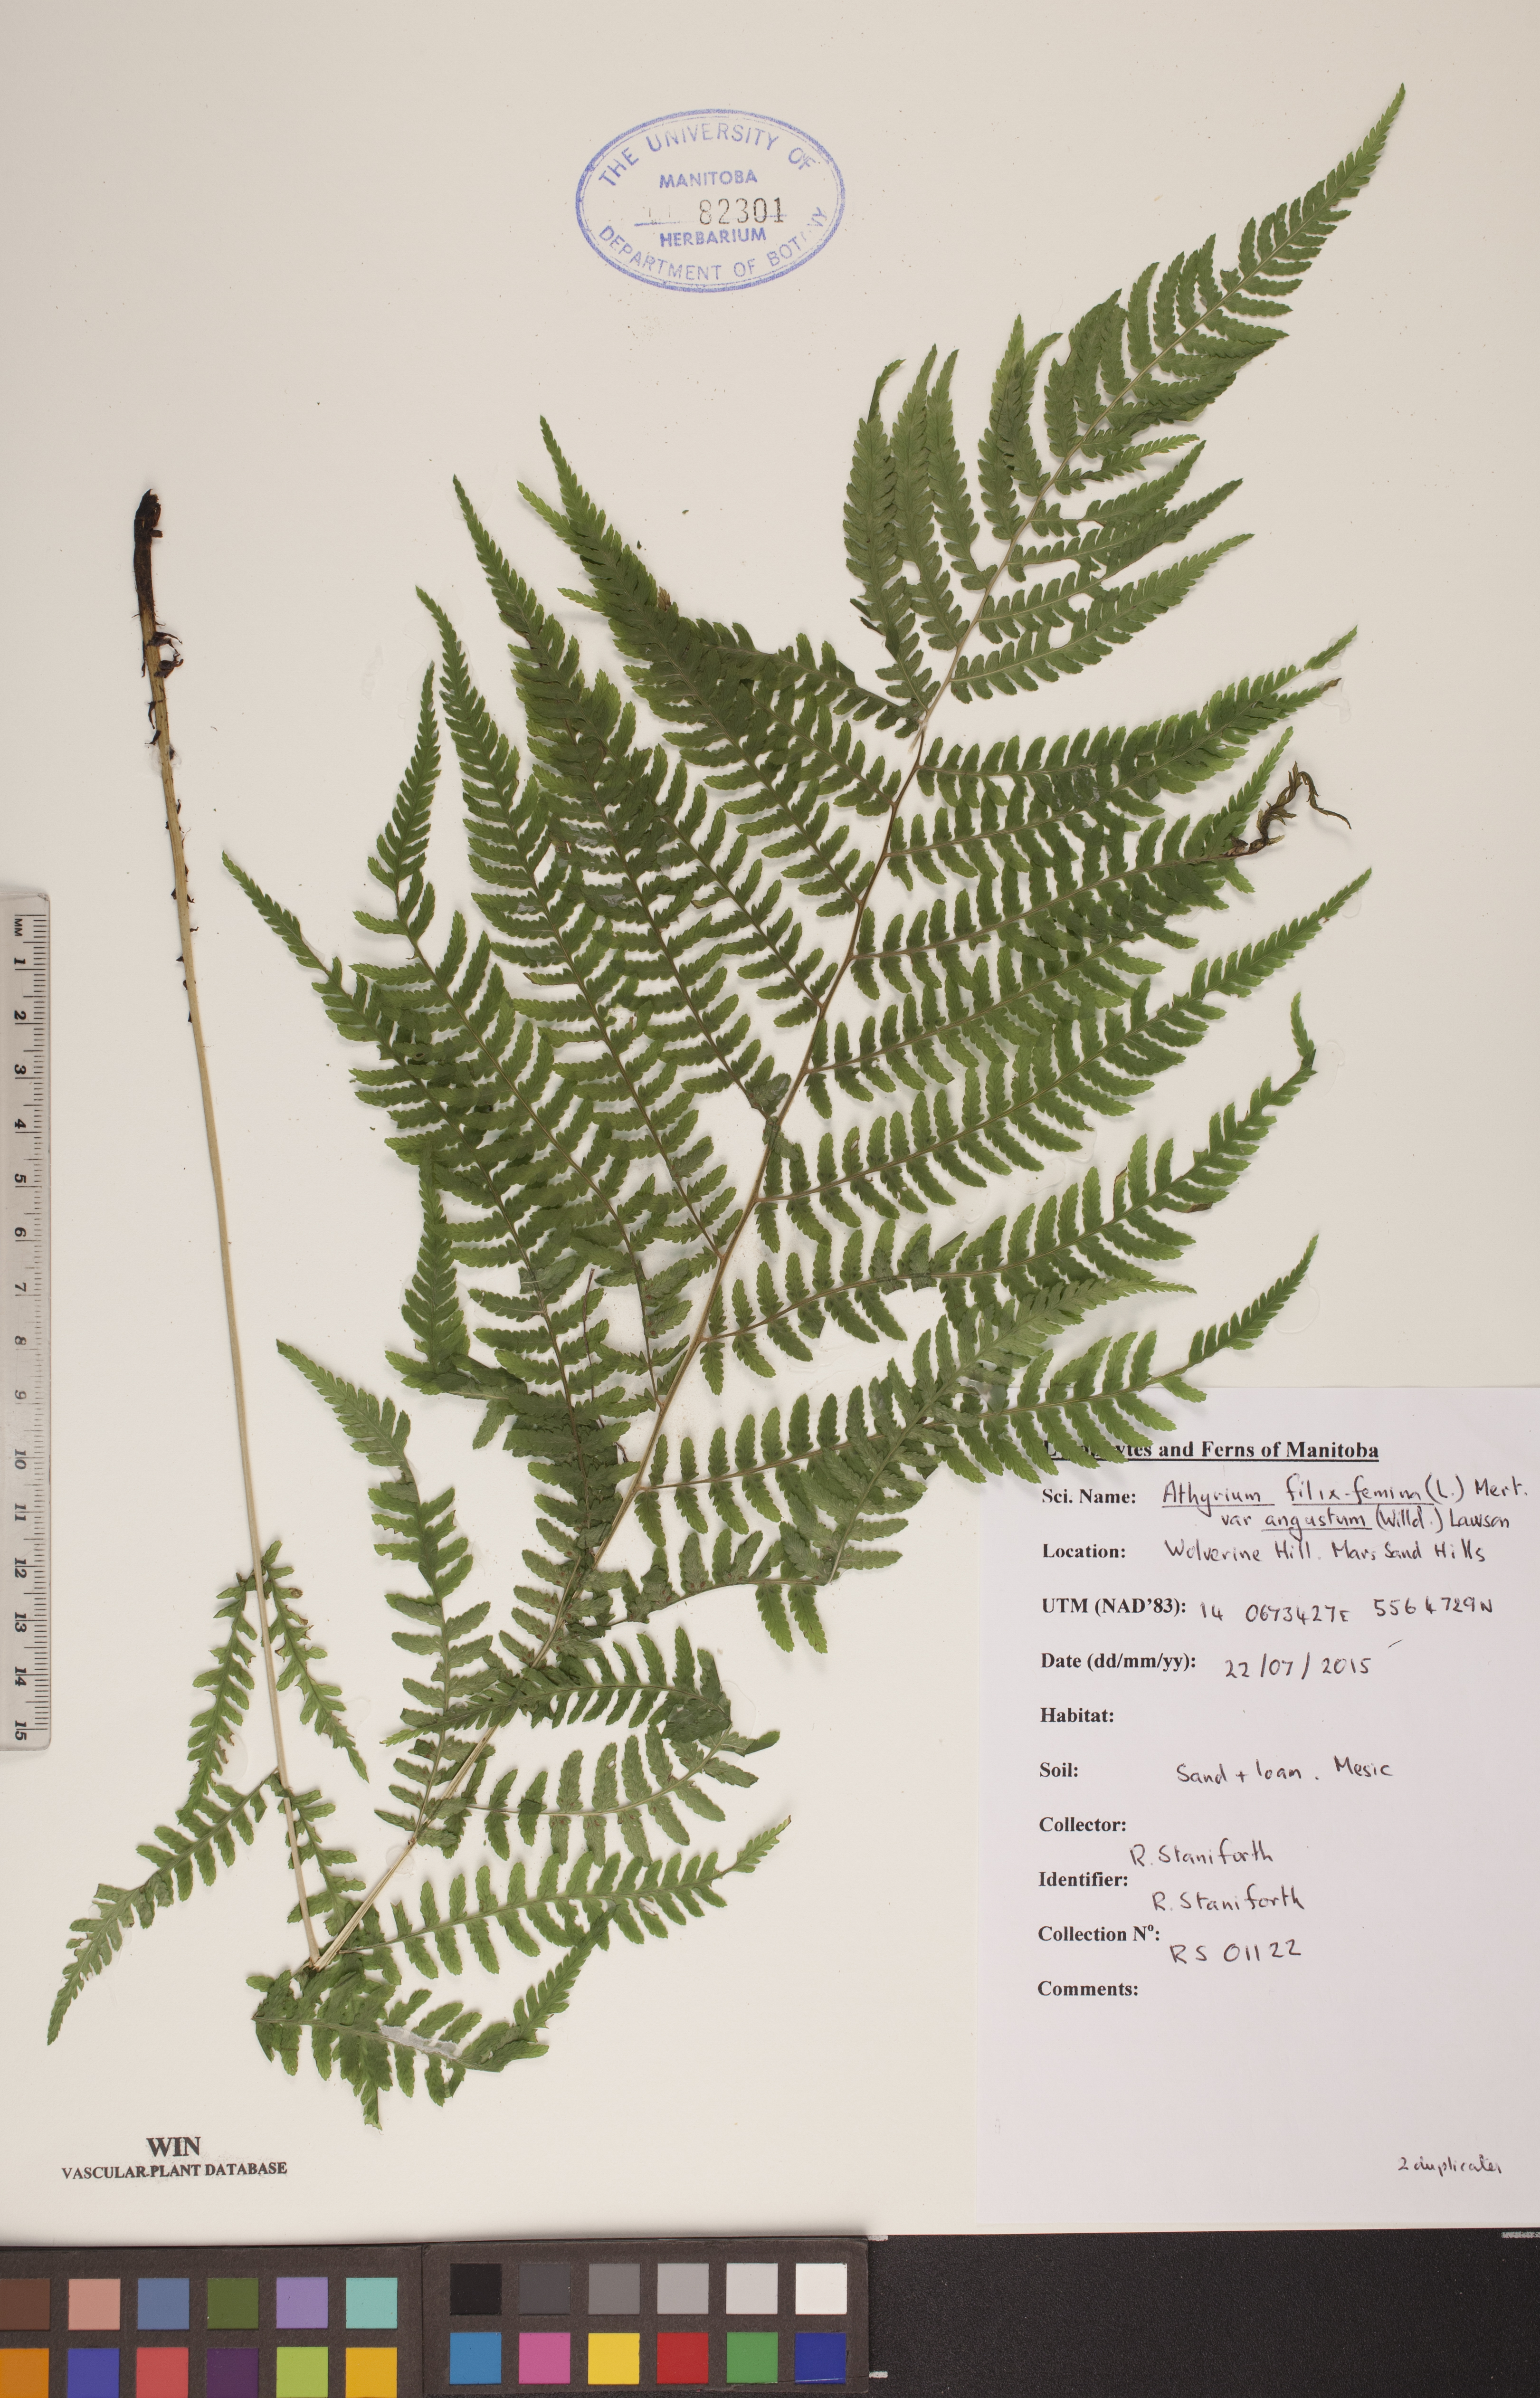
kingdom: Plantae
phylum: Tracheophyta
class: Polypodiopsida
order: Polypodiales
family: Athyriaceae
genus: Athyrium
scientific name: Athyrium angustum
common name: Northern lady fern
